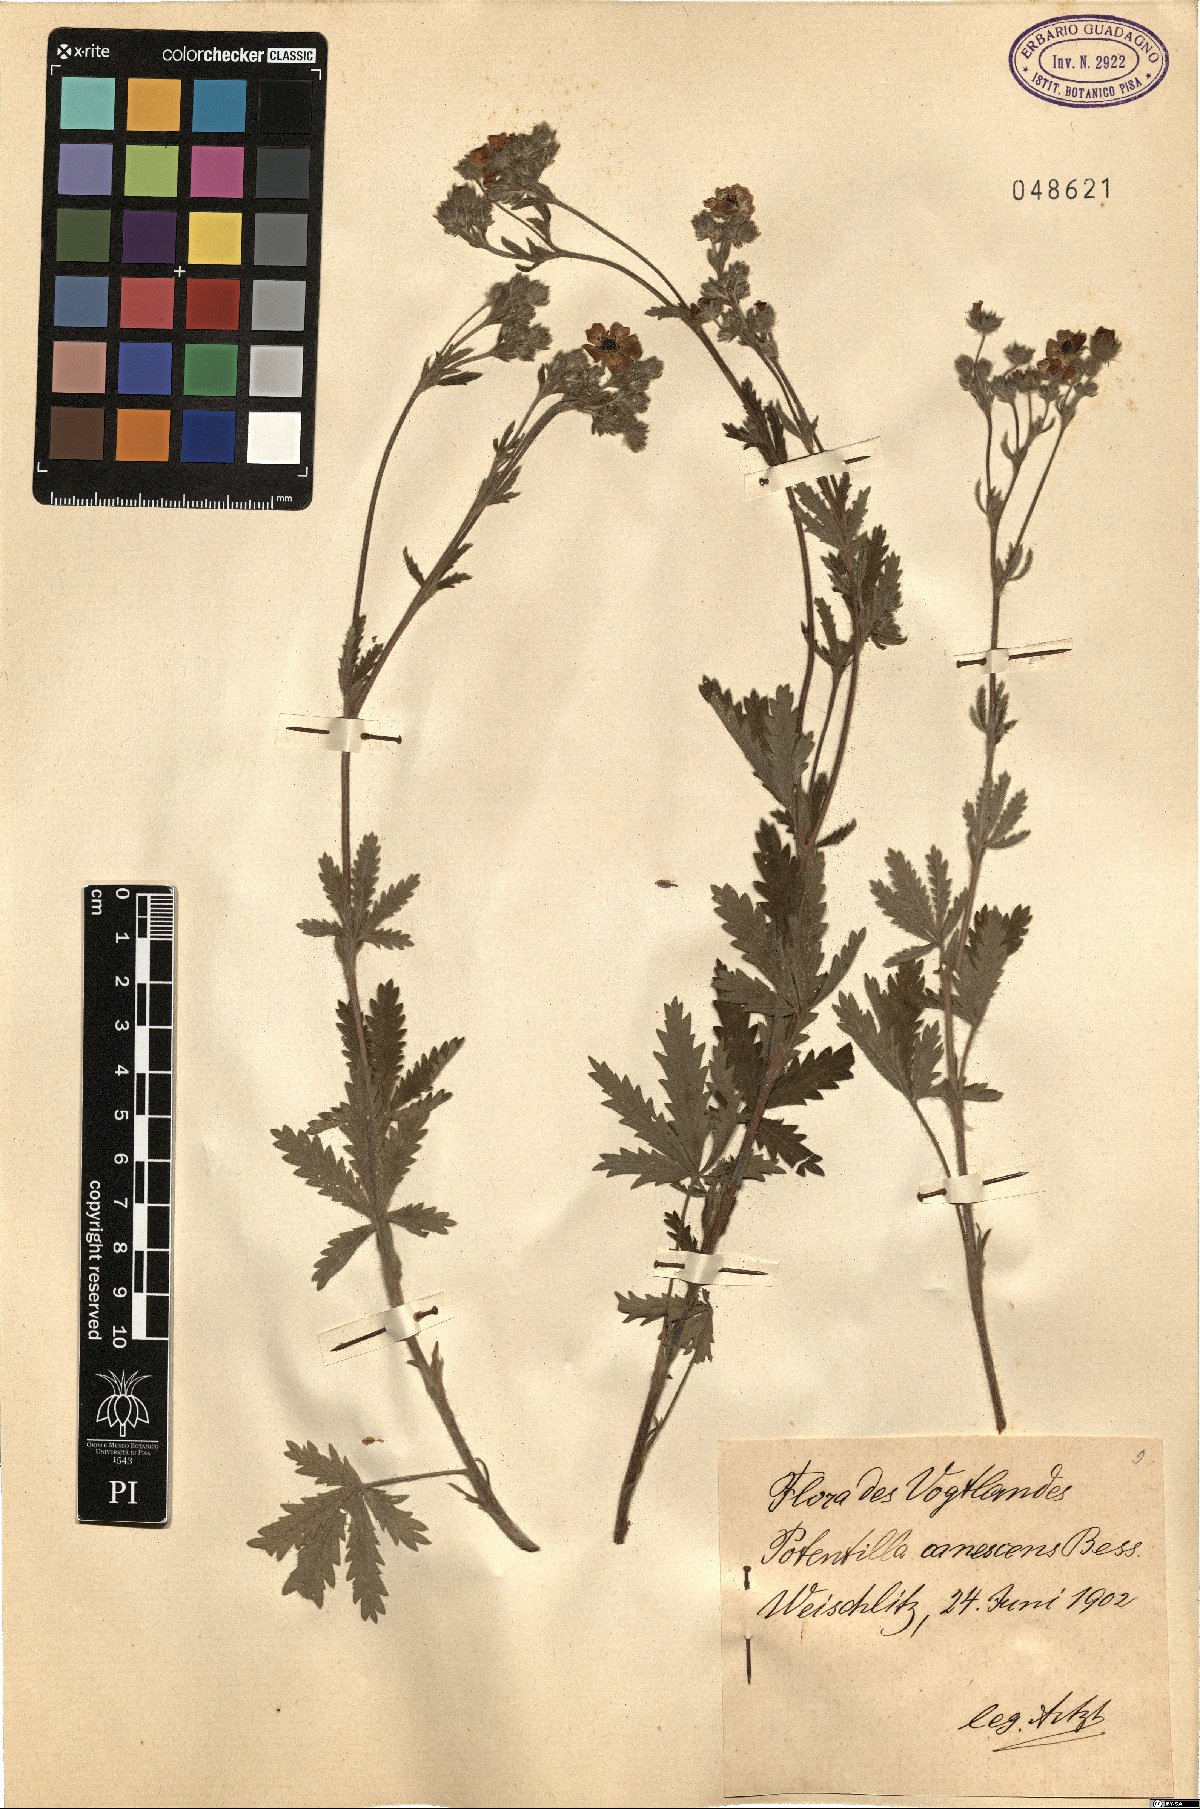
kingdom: Plantae
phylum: Tracheophyta
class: Magnoliopsida
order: Rosales
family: Rosaceae
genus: Potentilla
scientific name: Potentilla inclinata
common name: Grey cinquefoil
